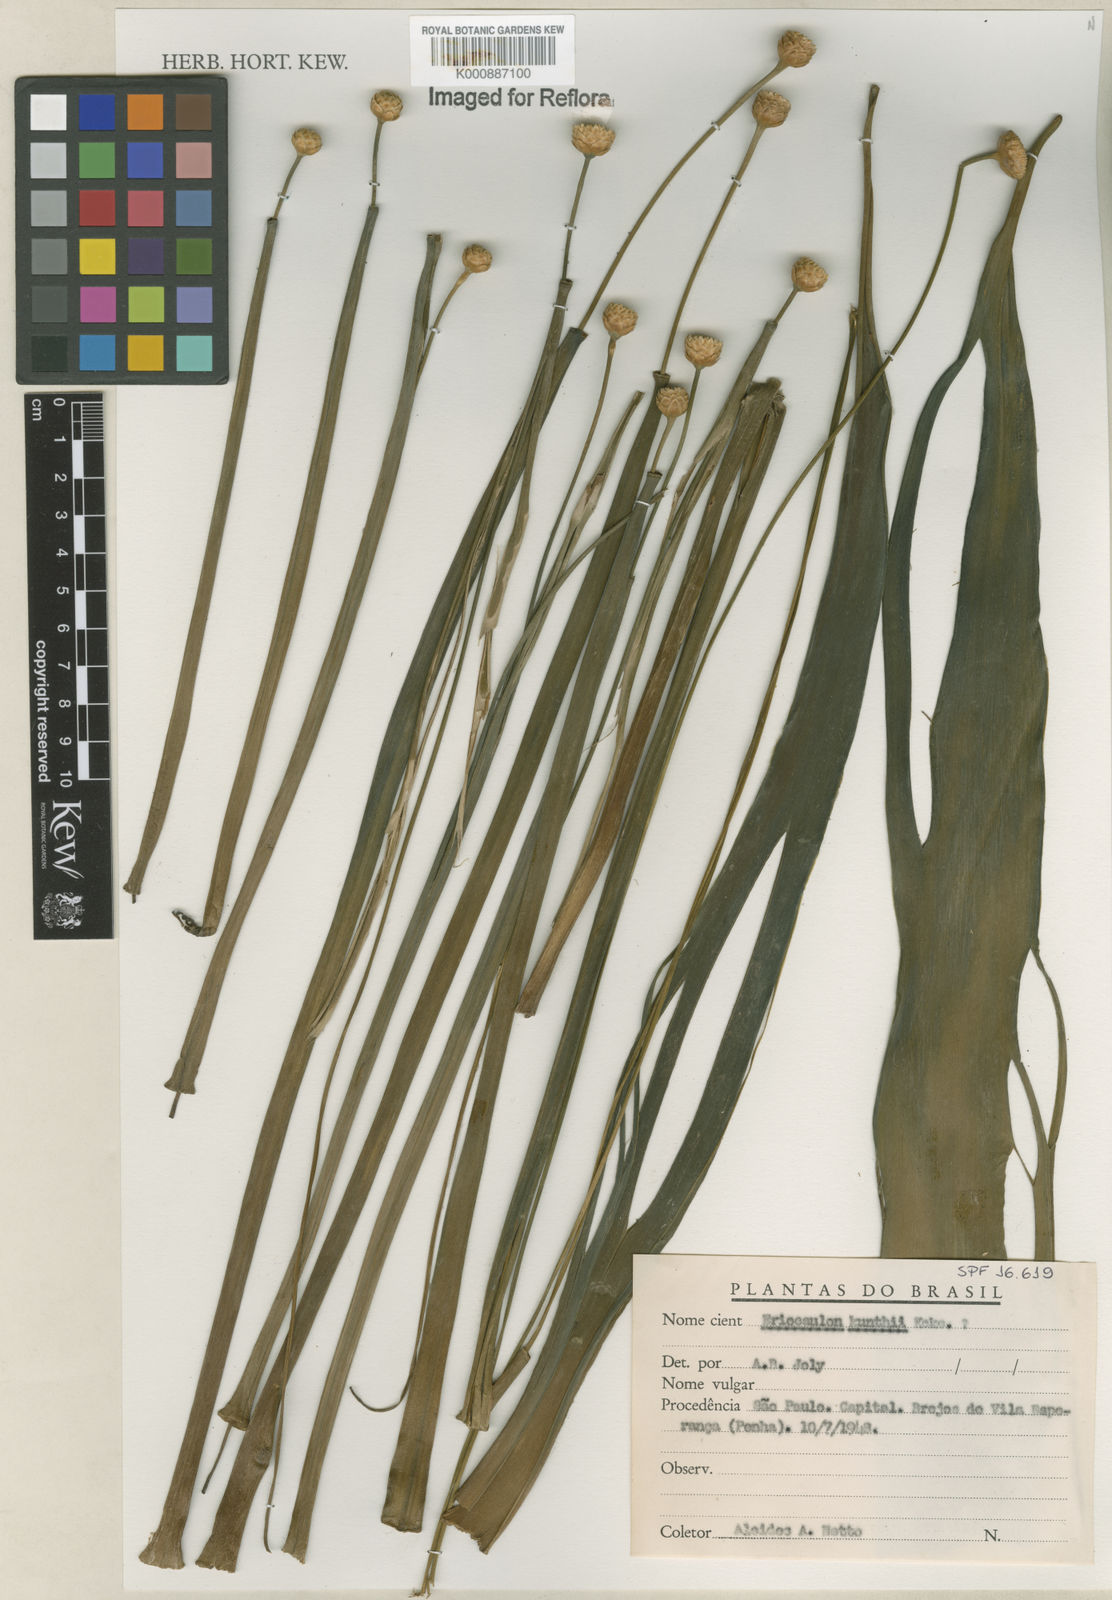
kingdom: Plantae
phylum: Tracheophyta
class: Liliopsida
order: Poales
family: Eriocaulaceae
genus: Eriocaulon
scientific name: Eriocaulon
